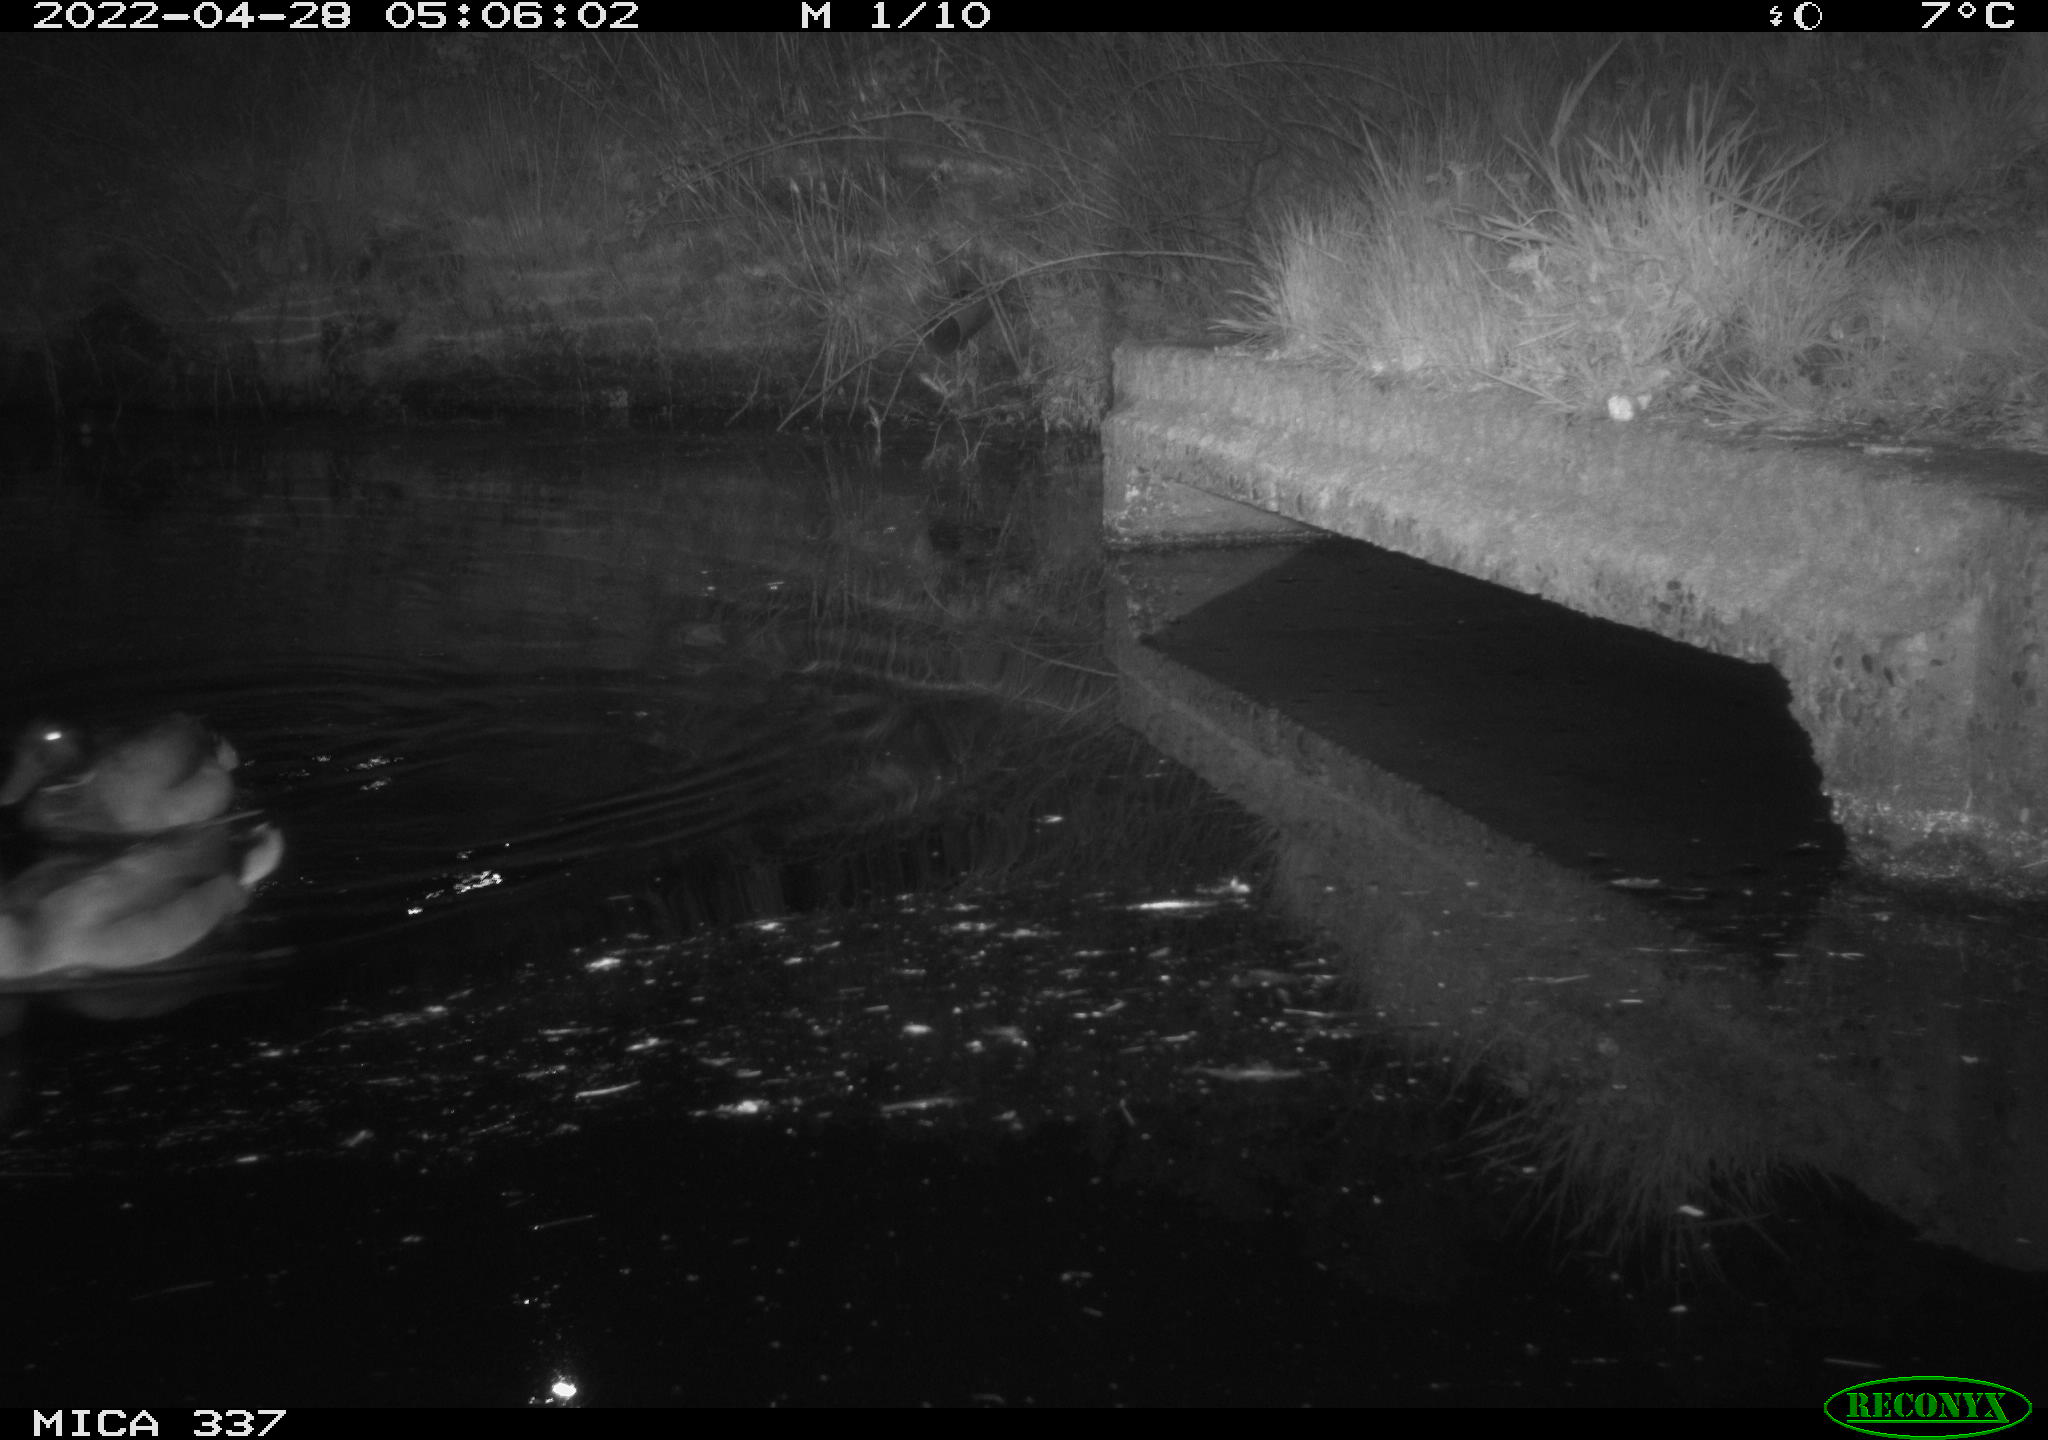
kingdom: Animalia
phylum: Chordata
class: Aves
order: Anseriformes
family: Anatidae
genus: Anas
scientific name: Anas platyrhynchos
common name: Mallard
